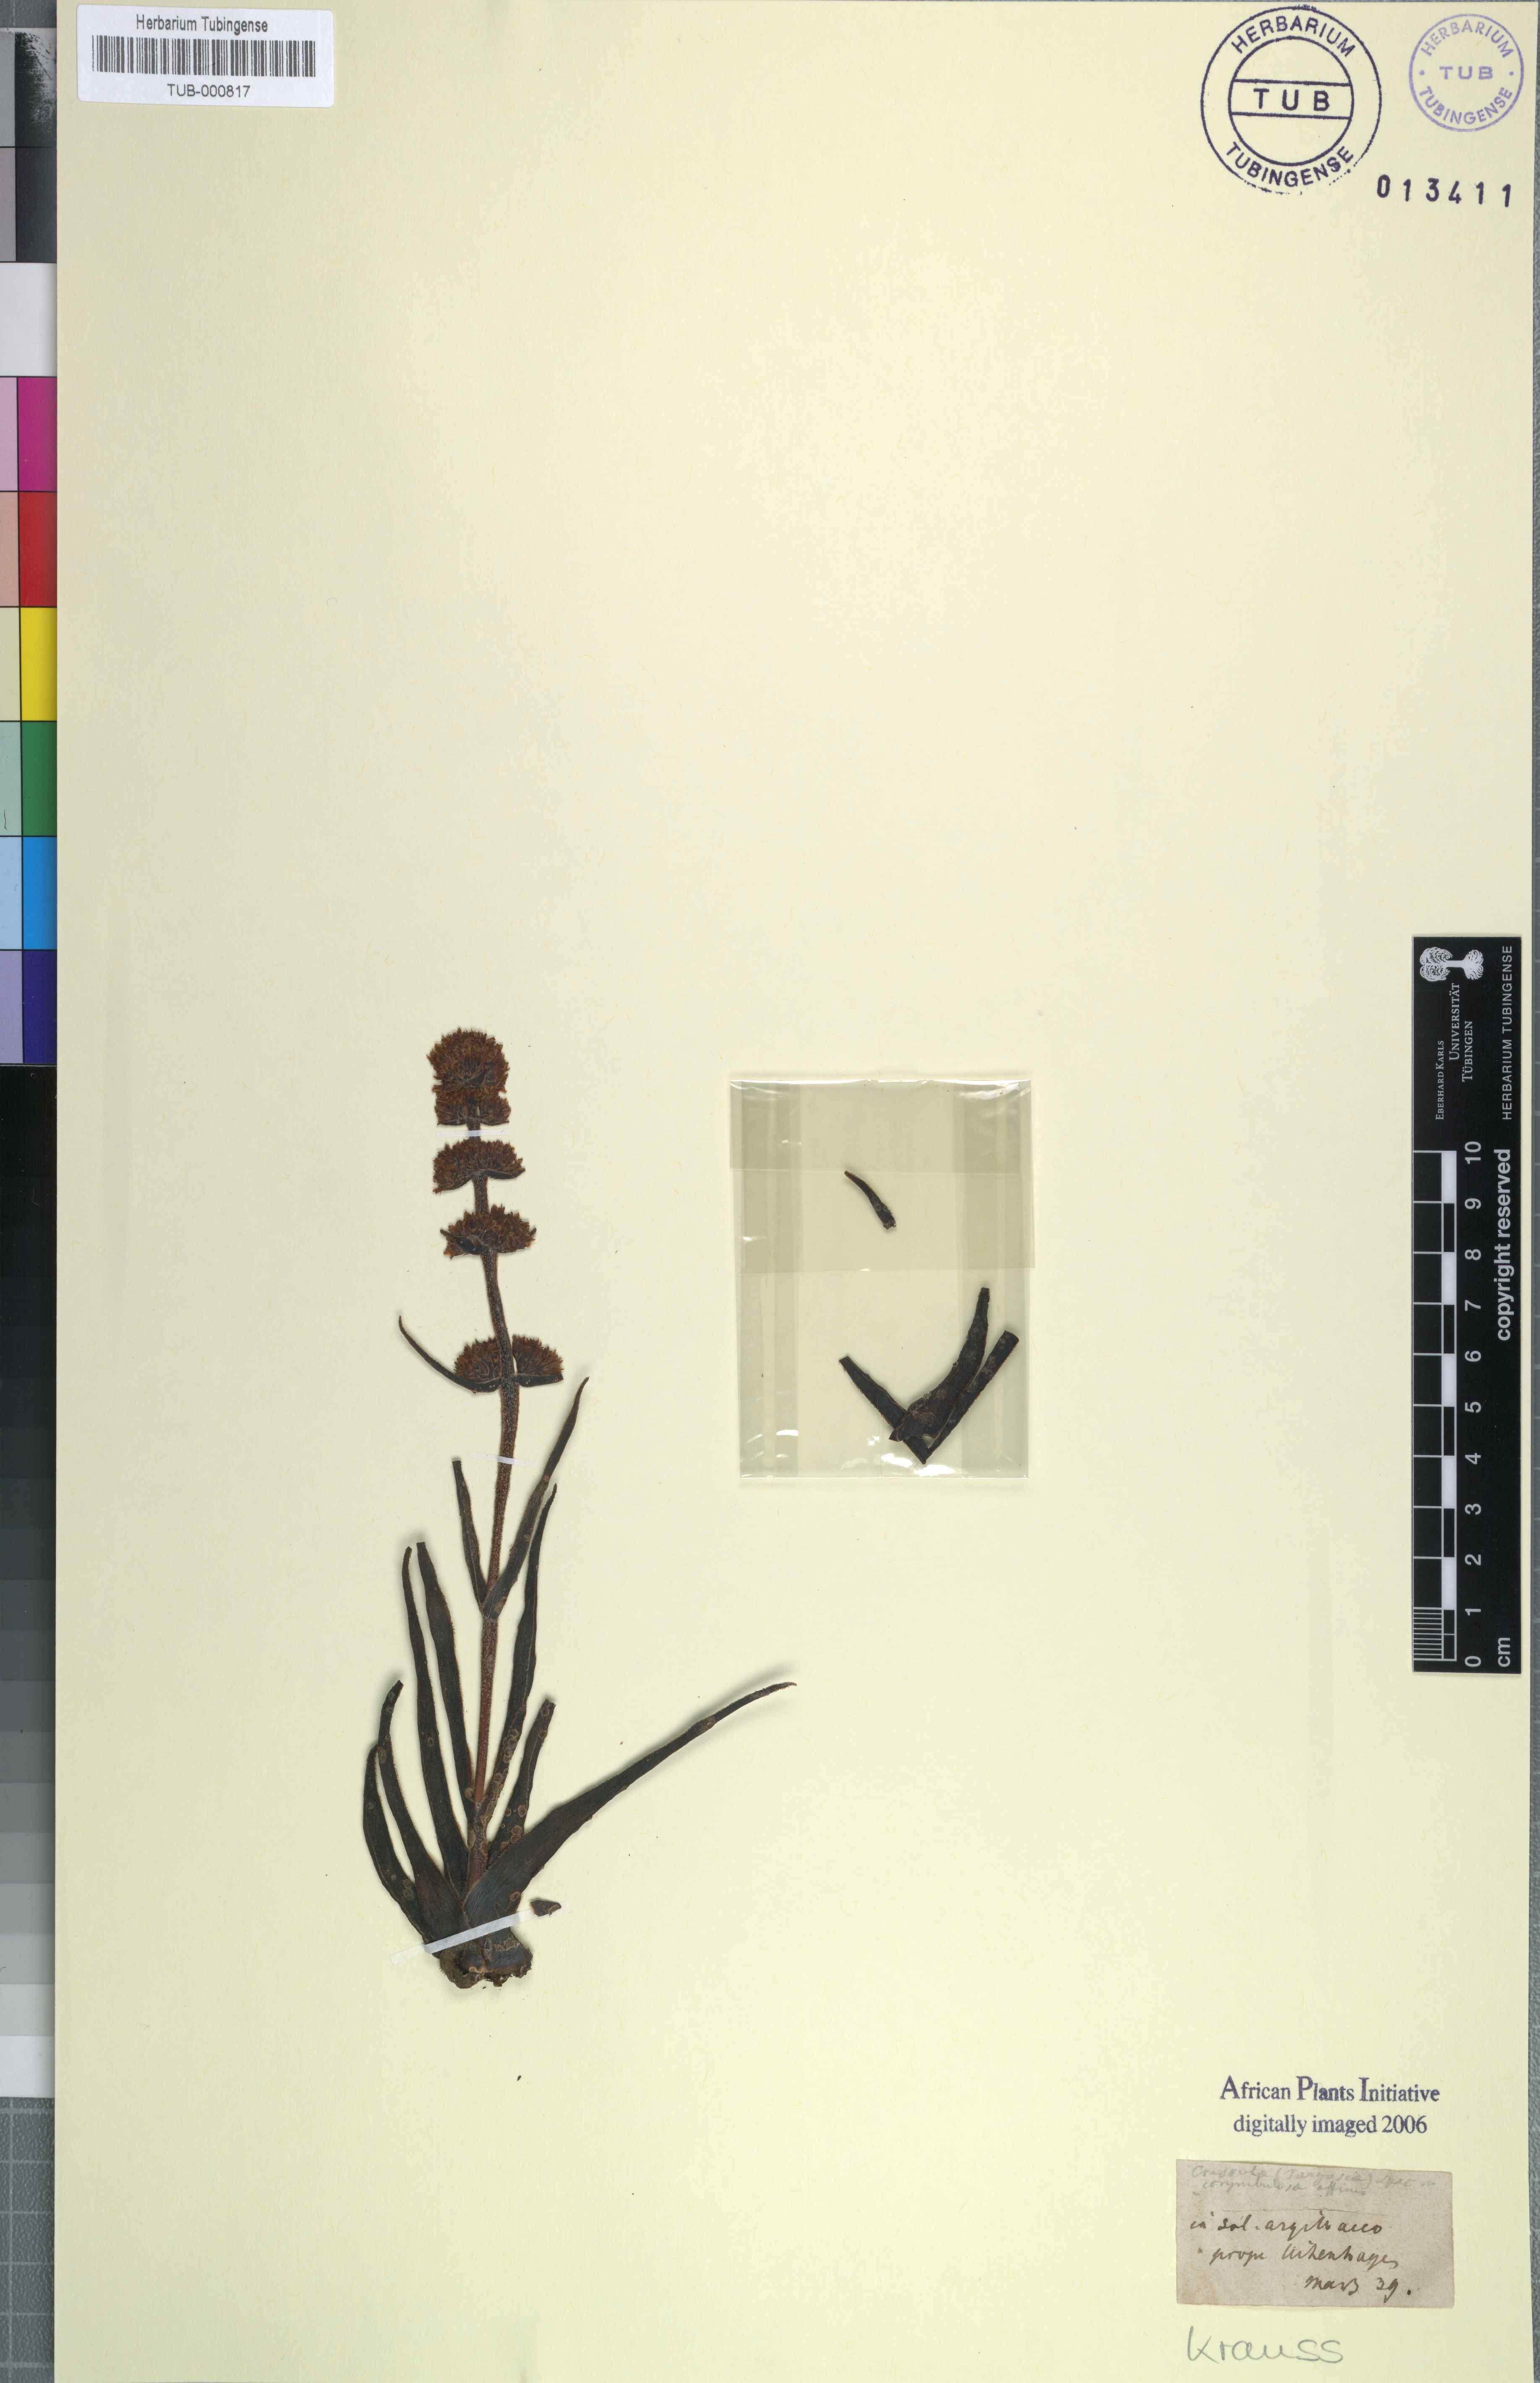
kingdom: Plantae
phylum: Tracheophyta
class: Magnoliopsida
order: Saxifragales
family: Crassulaceae
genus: Crassula
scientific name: Crassula
